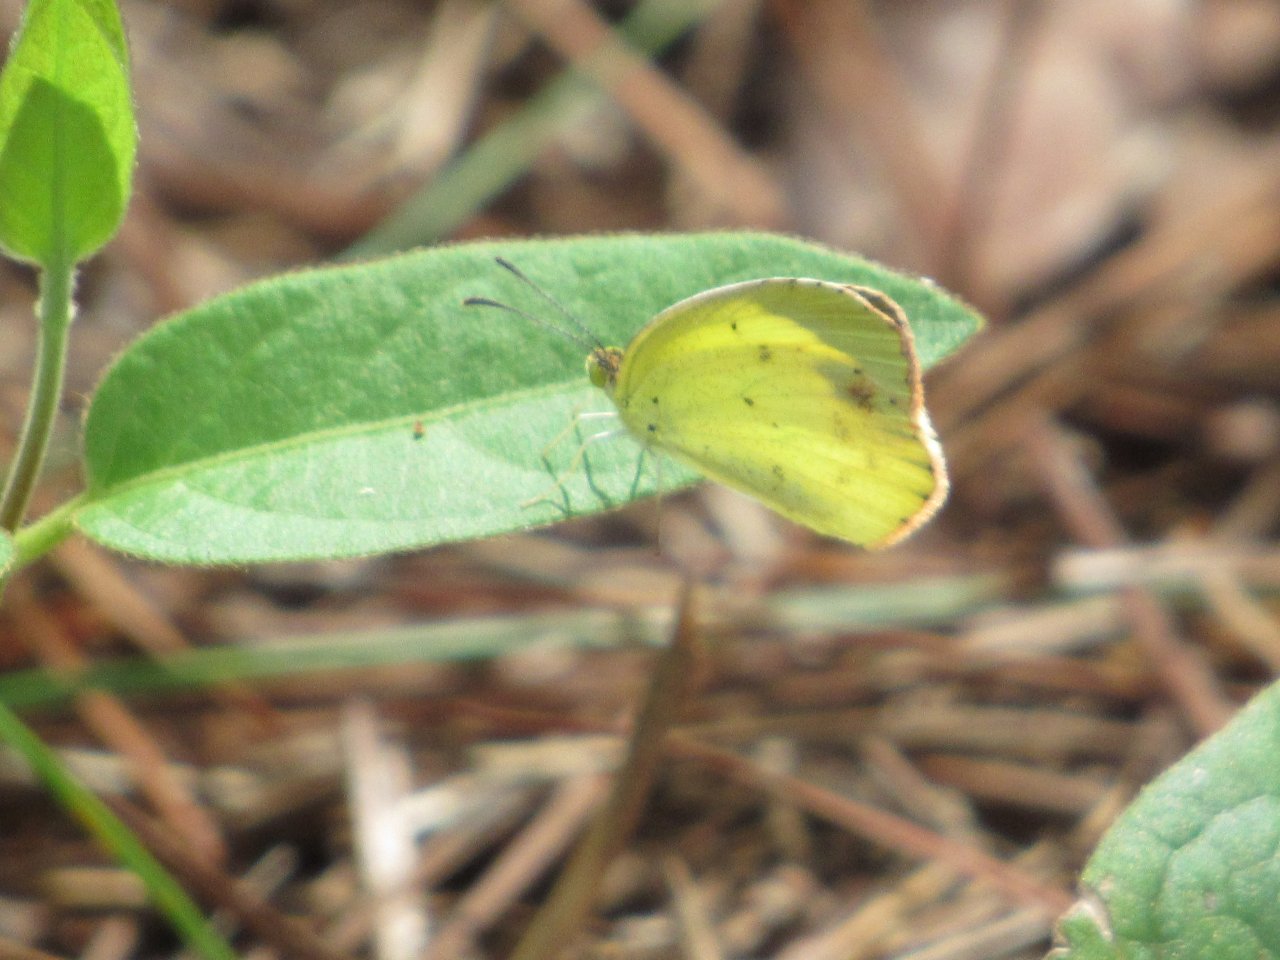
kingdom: Animalia
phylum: Arthropoda
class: Insecta
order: Lepidoptera
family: Pieridae
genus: Pyrisitia
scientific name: Pyrisitia lisa
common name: Little Yellow
